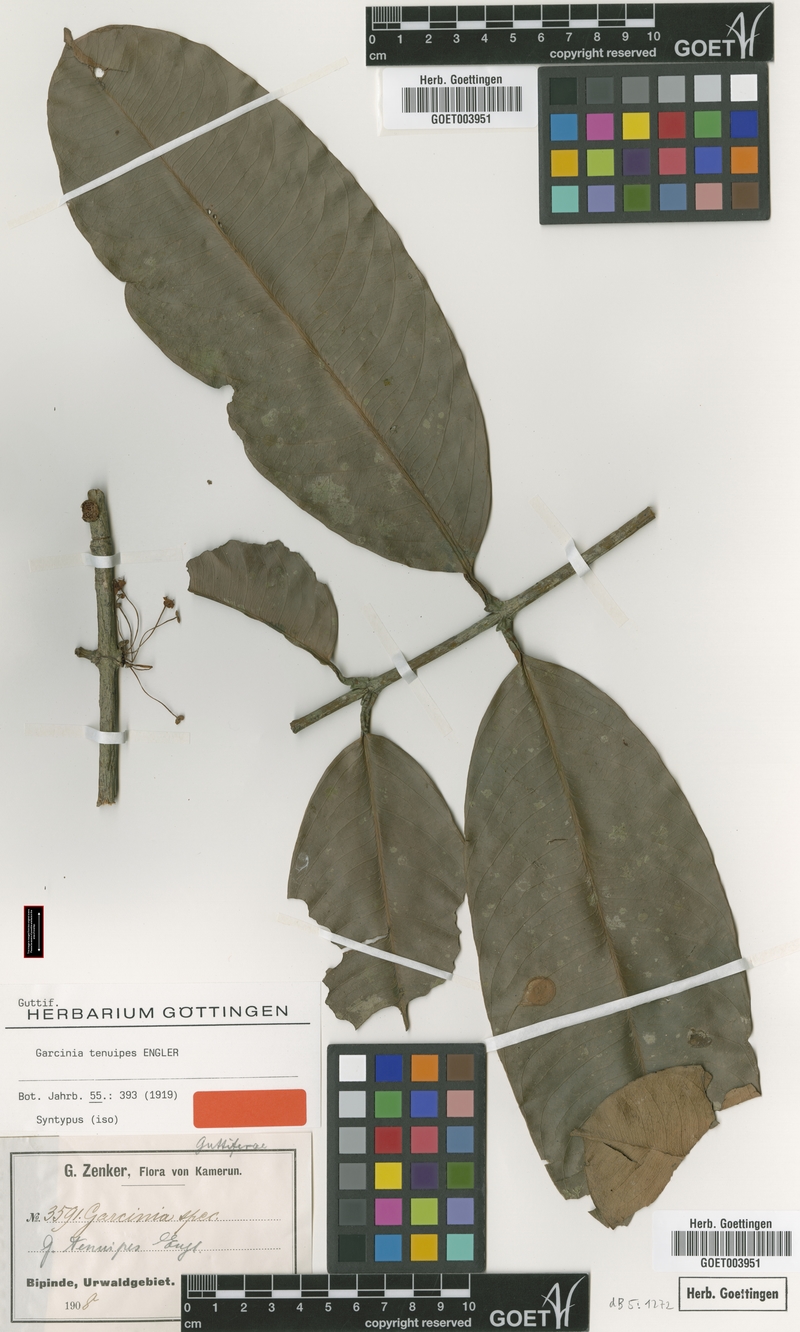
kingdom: Plantae
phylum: Tracheophyta
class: Magnoliopsida
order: Malpighiales
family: Clusiaceae
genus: Garcinia
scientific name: Garcinia smeathmannii
